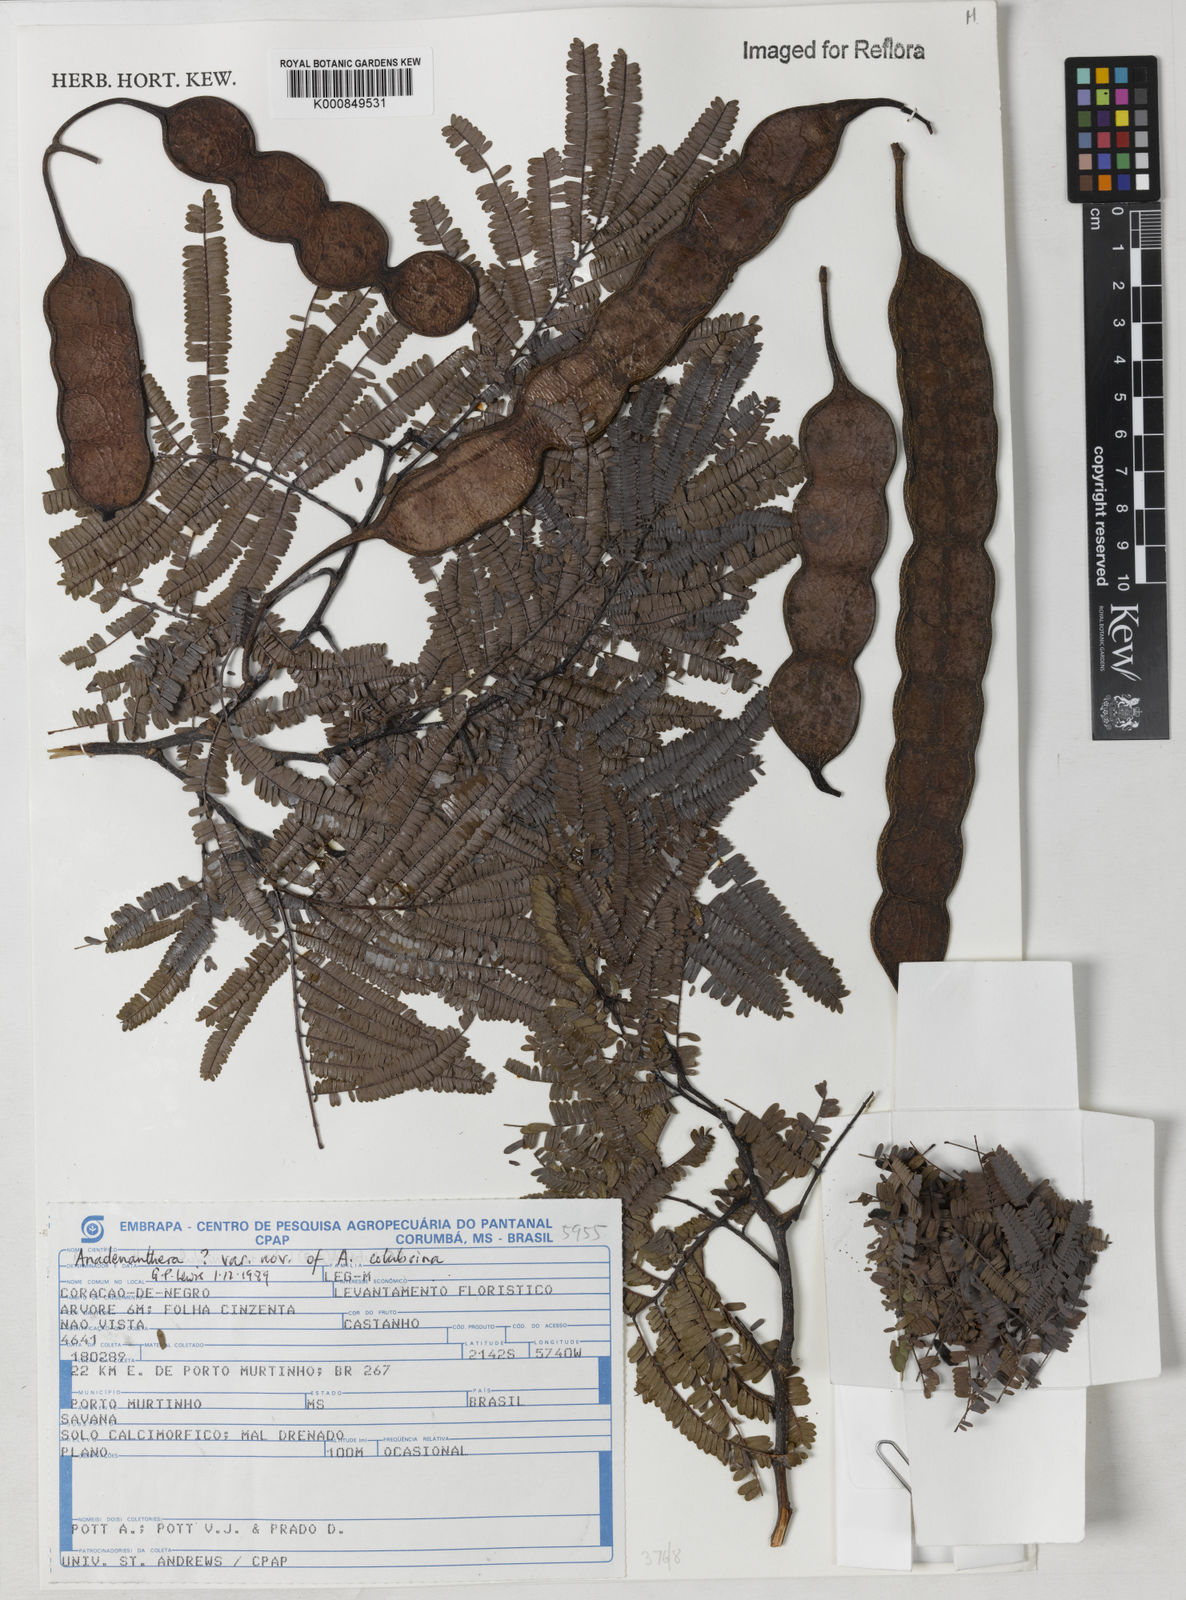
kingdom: Plantae
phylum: Tracheophyta
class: Magnoliopsida
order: Fabales
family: Fabaceae
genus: Anadenanthera
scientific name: Anadenanthera colubrina
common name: Curupay
